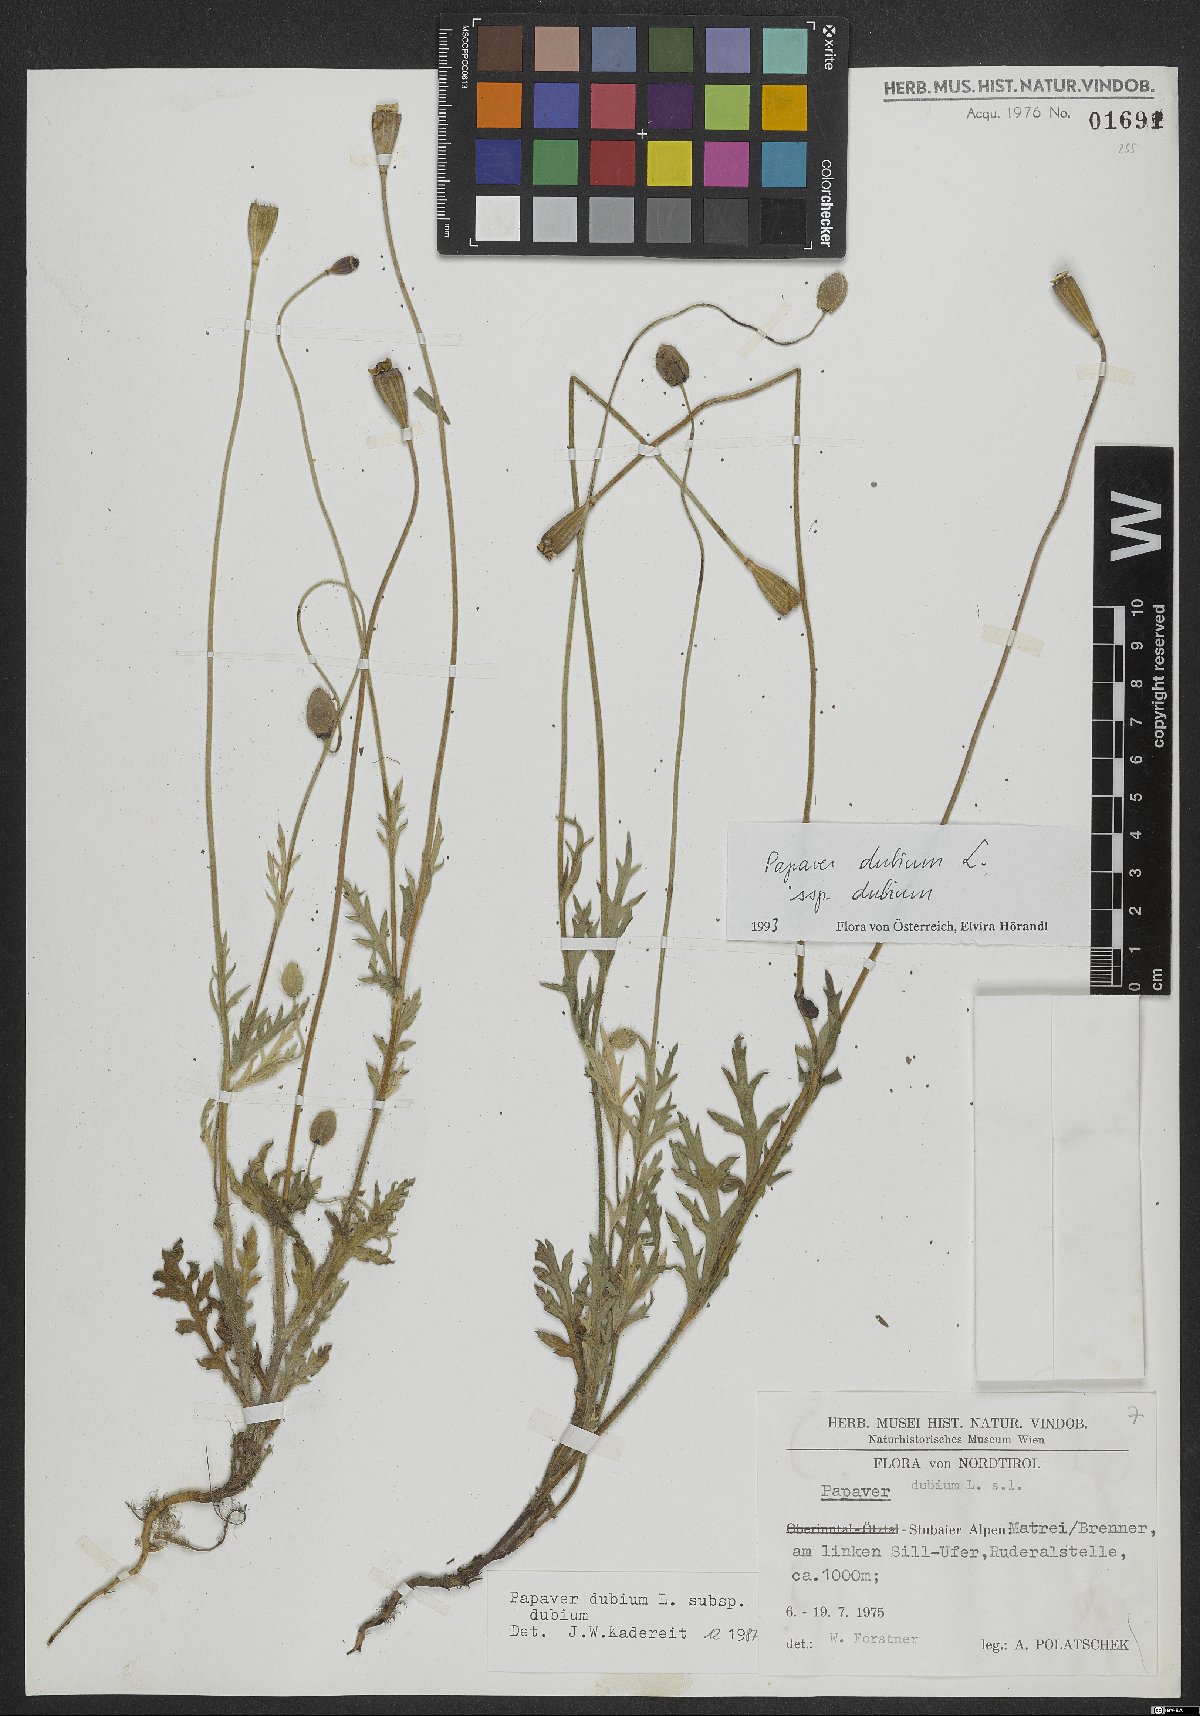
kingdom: Plantae
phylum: Tracheophyta
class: Magnoliopsida
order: Ranunculales
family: Papaveraceae
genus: Papaver
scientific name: Papaver dubium
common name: Long-headed poppy
